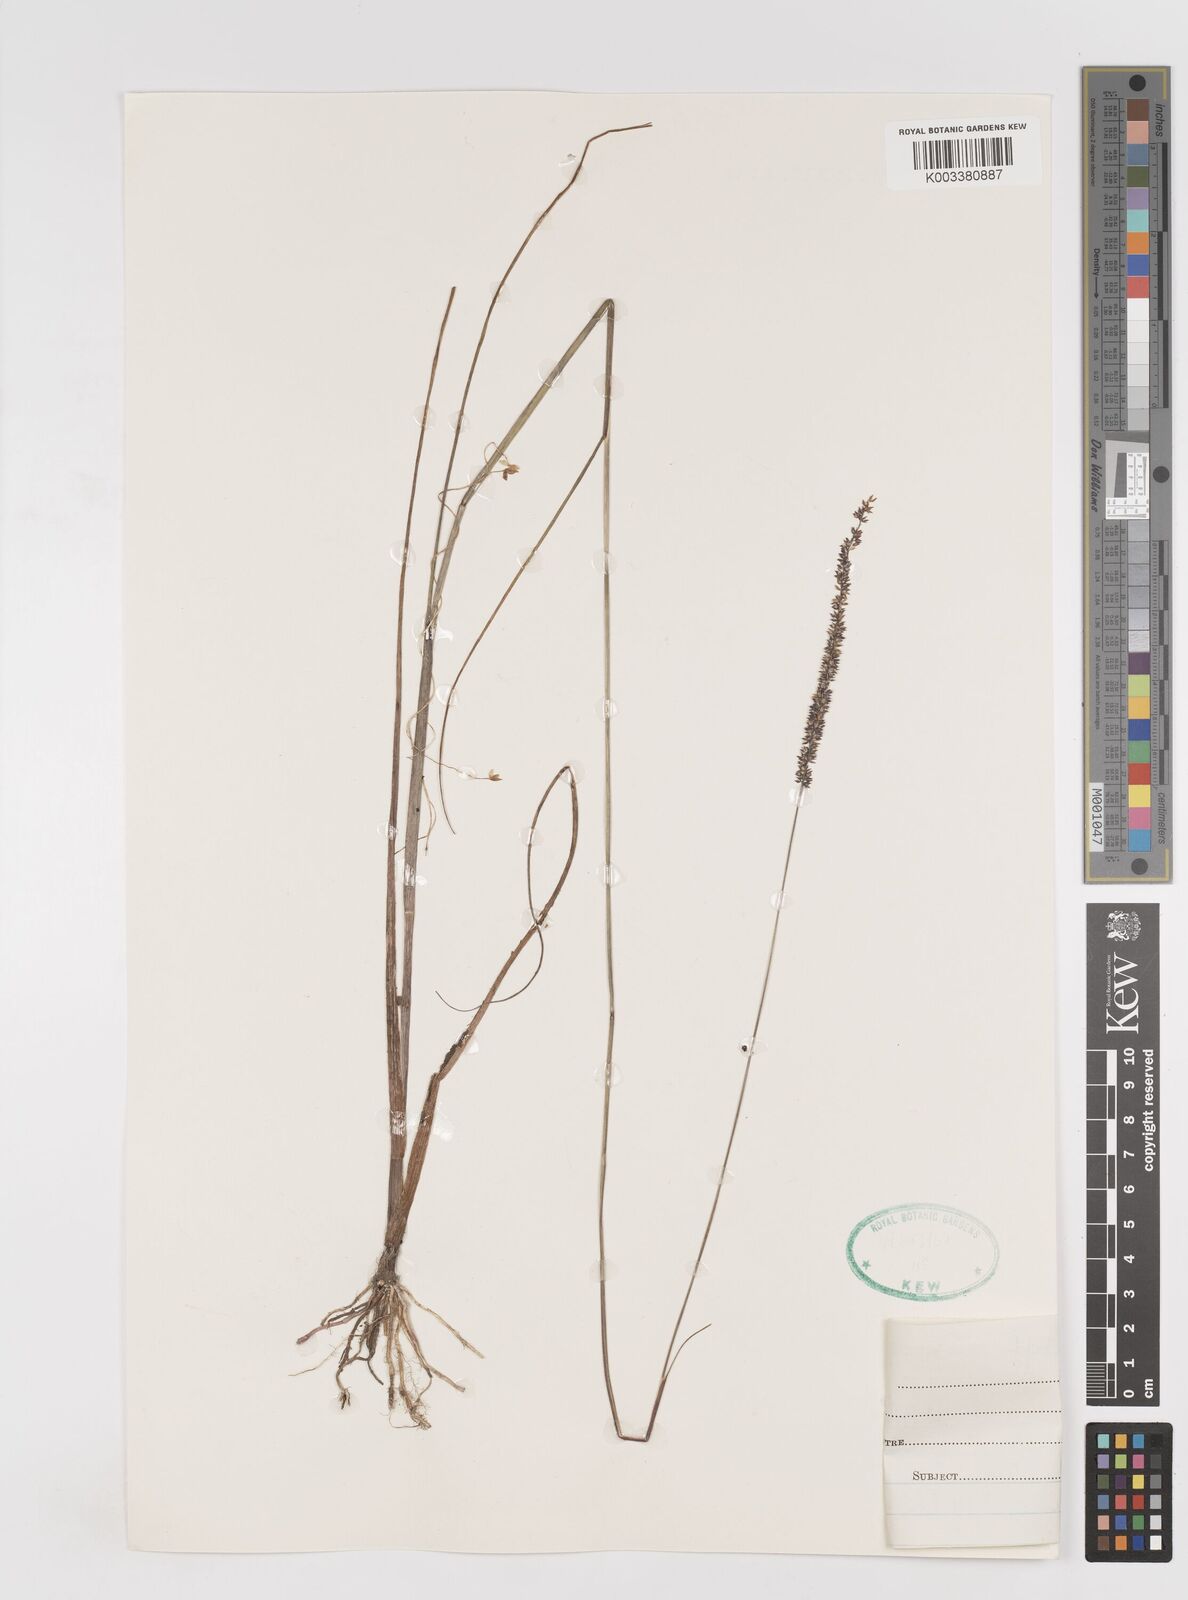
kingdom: Plantae
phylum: Tracheophyta
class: Liliopsida
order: Poales
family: Poaceae
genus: Sacciolepis
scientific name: Sacciolepis chevalieri
